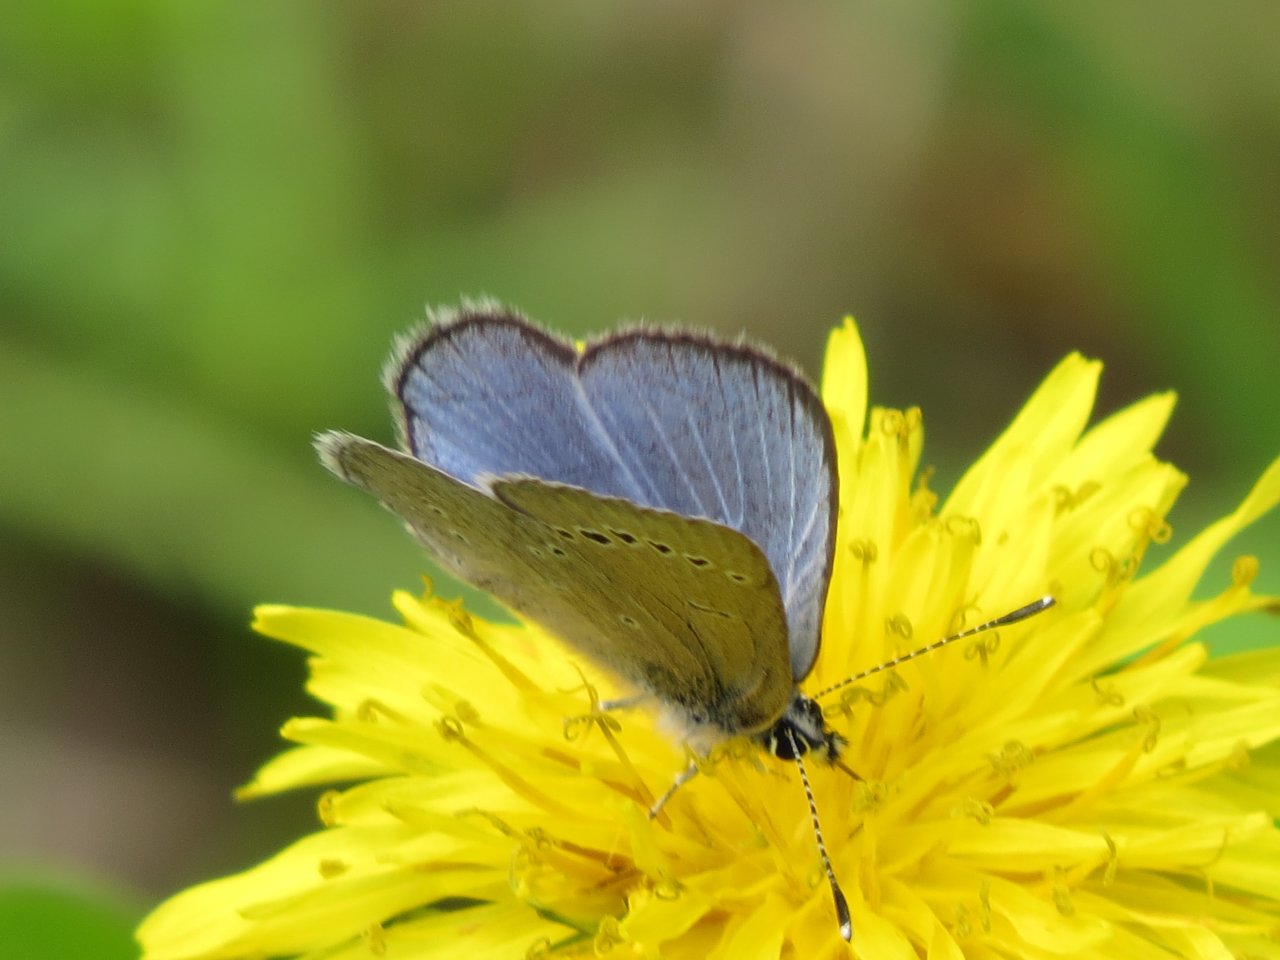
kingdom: Animalia
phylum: Arthropoda
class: Insecta
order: Lepidoptera
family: Lycaenidae
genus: Glaucopsyche
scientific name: Glaucopsyche lygdamus
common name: Silvery Blue
